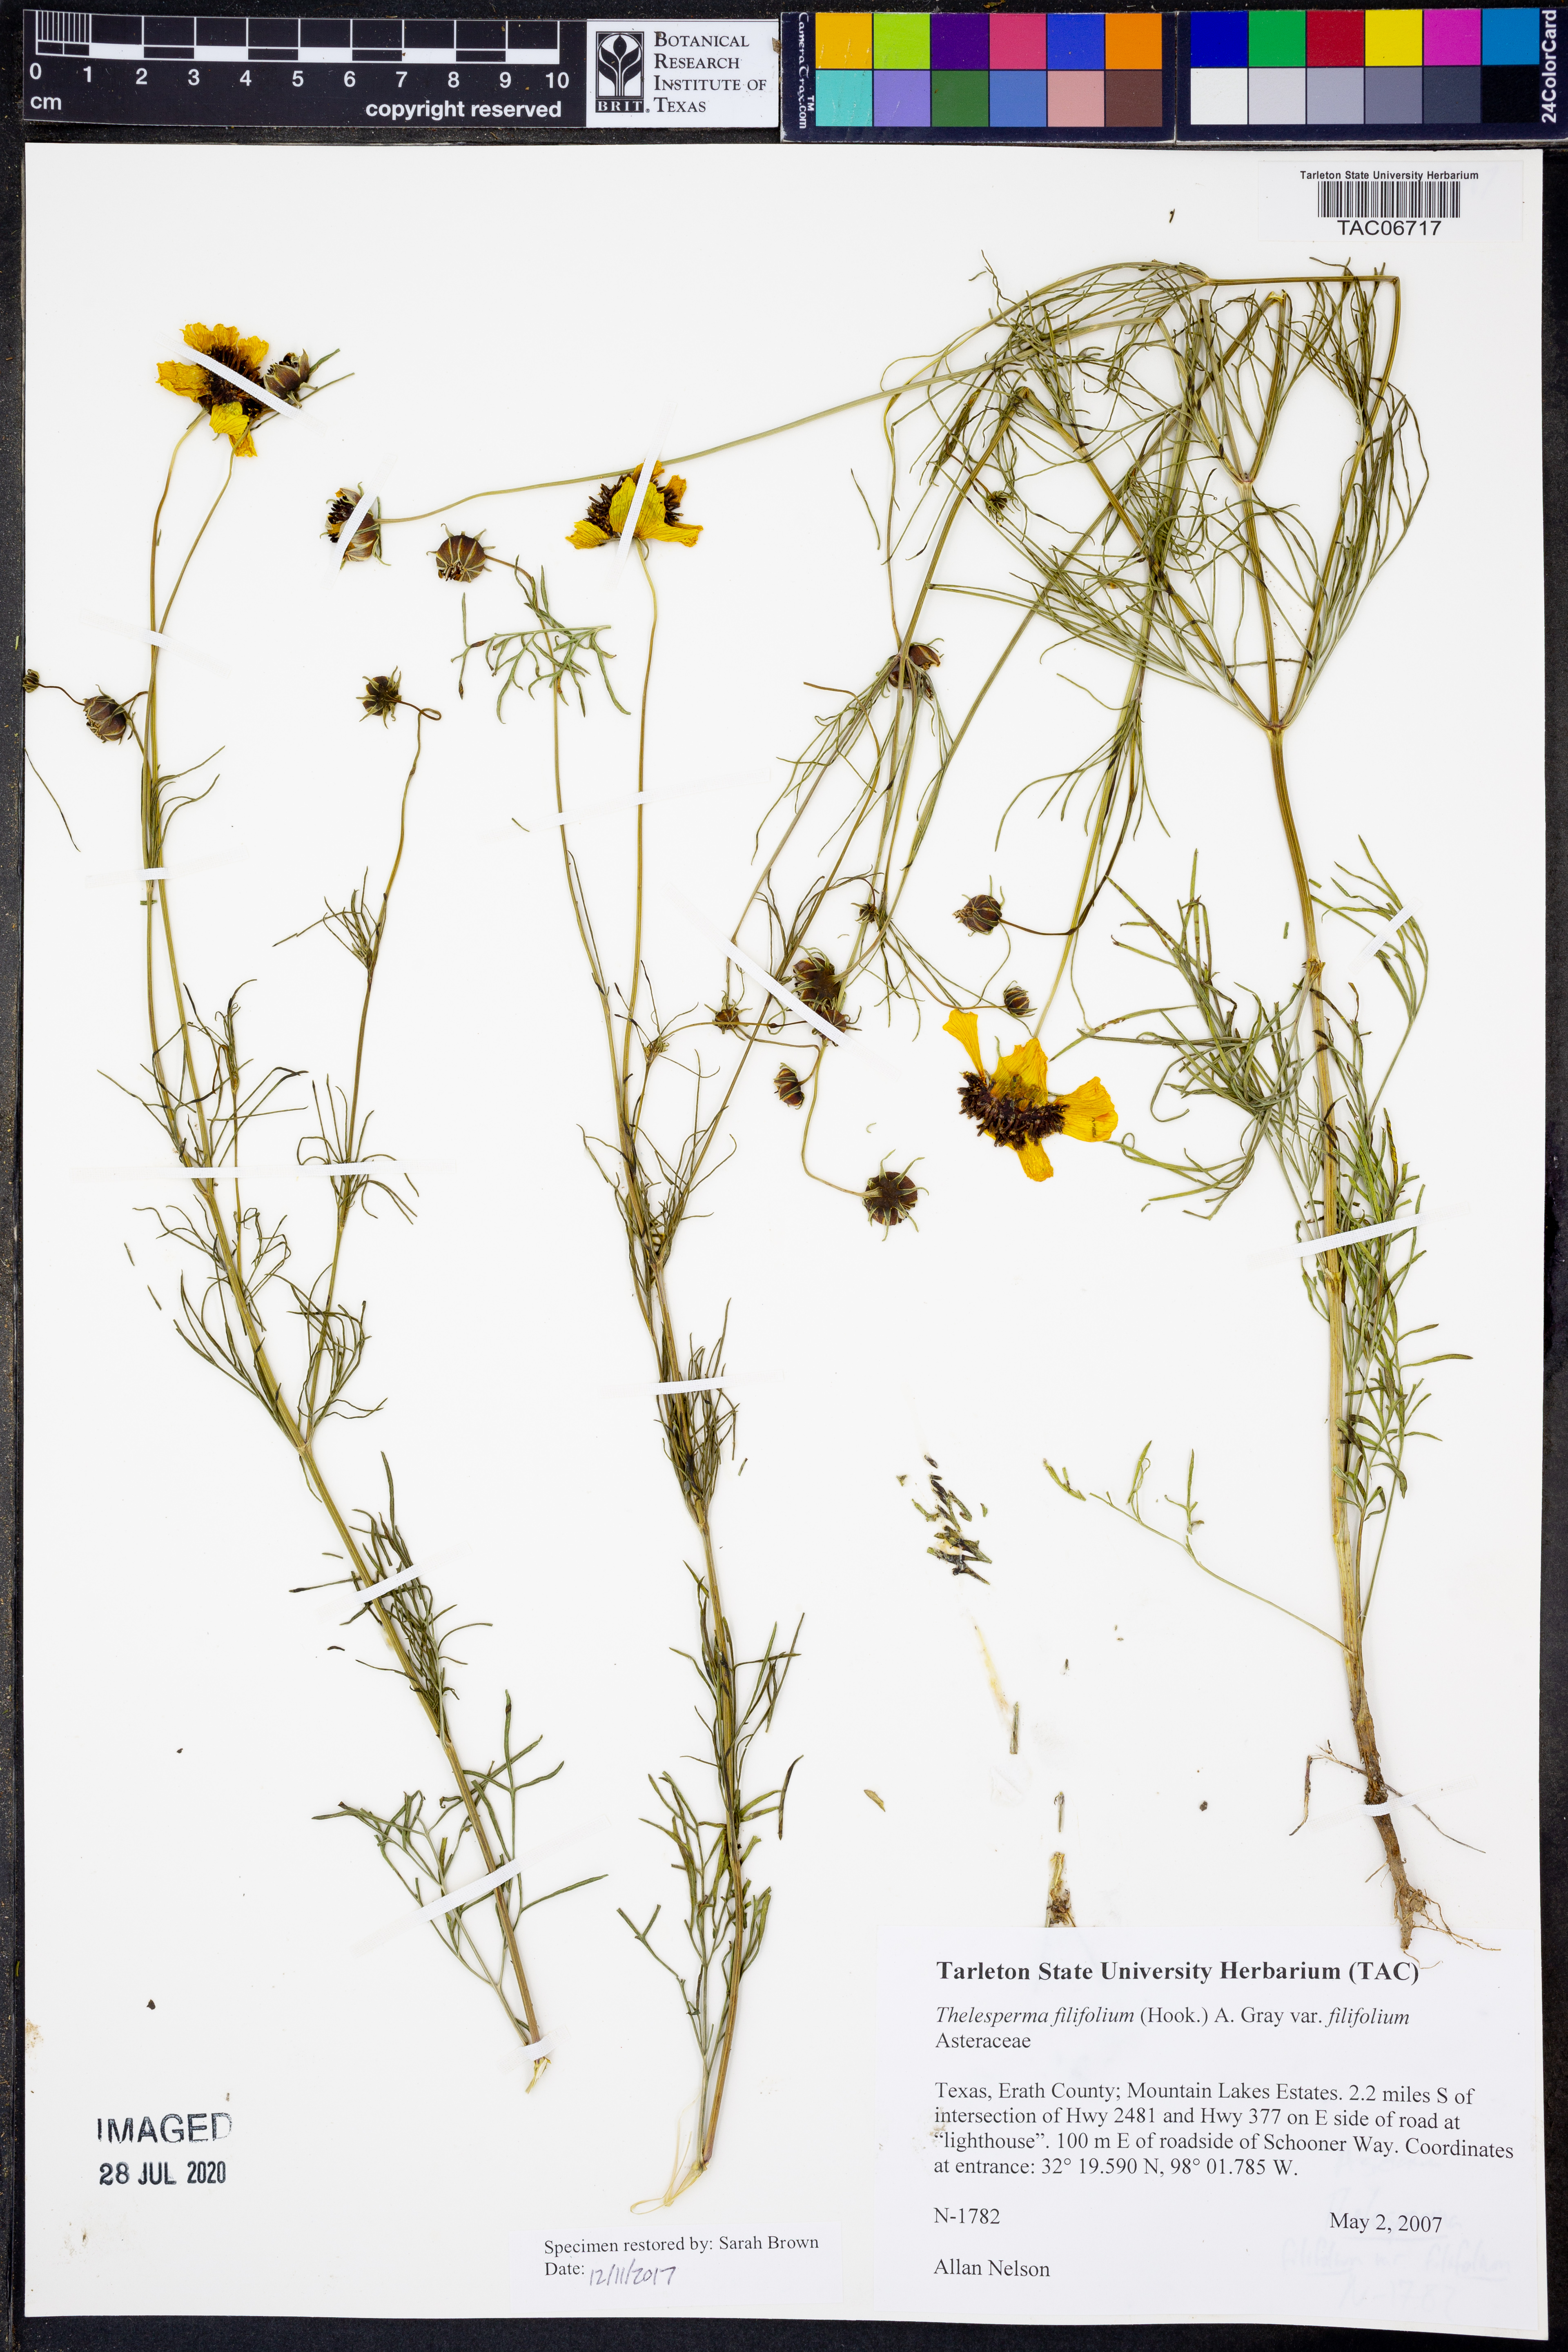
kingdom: Plantae
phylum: Tracheophyta
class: Magnoliopsida
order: Asterales
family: Asteraceae
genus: Thelesperma
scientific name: Thelesperma filifolium
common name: Stiff greenthread
